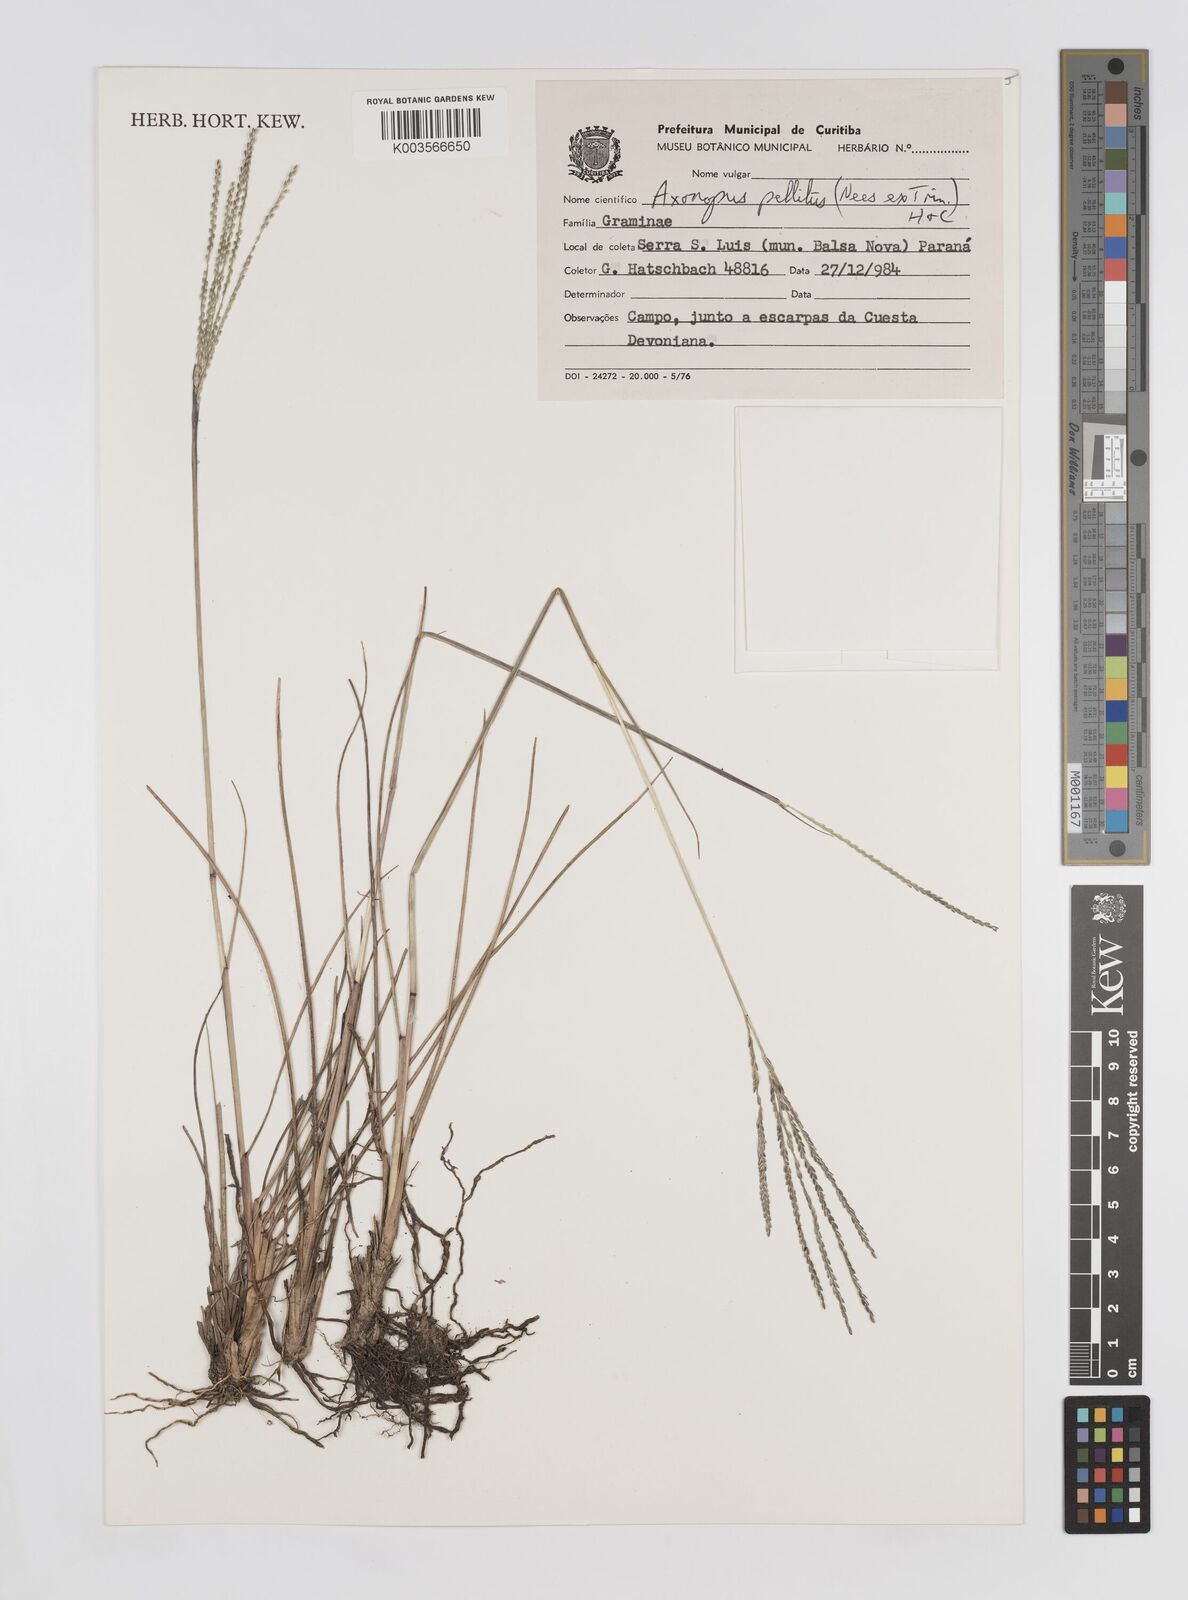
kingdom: Plantae
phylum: Tracheophyta
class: Liliopsida
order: Poales
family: Poaceae
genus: Axonopus
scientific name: Axonopus siccus
